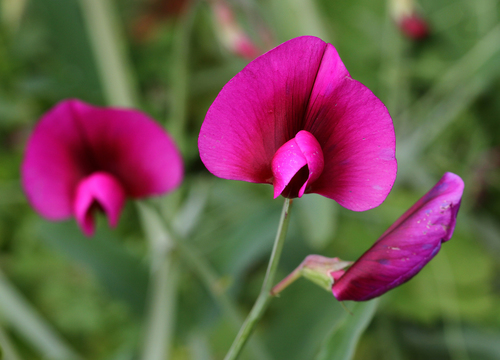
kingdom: Plantae
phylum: Tracheophyta
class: Magnoliopsida
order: Fabales
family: Fabaceae
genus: Lathyrus
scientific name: Lathyrus tingitanus
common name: Tangier pea
